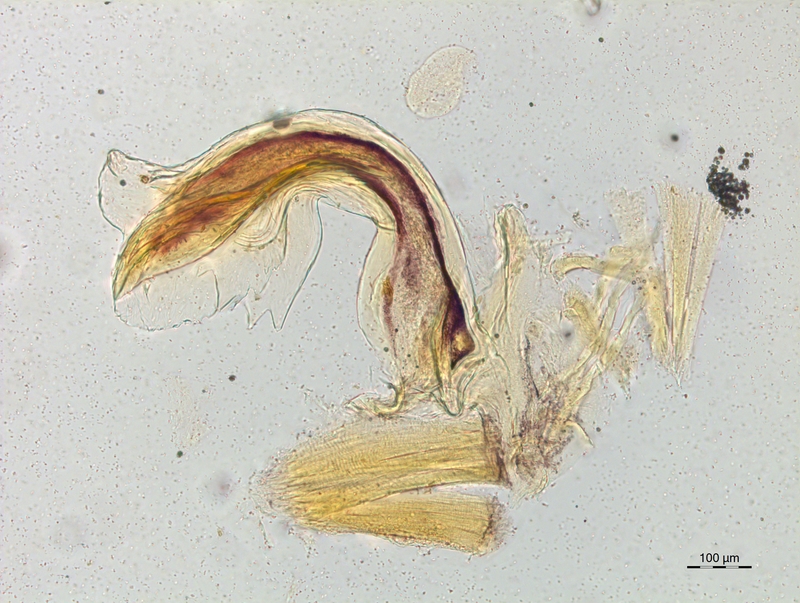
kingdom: Animalia
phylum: Arthropoda
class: Diplopoda
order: Chordeumatida
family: Craspedosomatidae
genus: Craspedosoma
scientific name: Craspedosoma taurinorum
